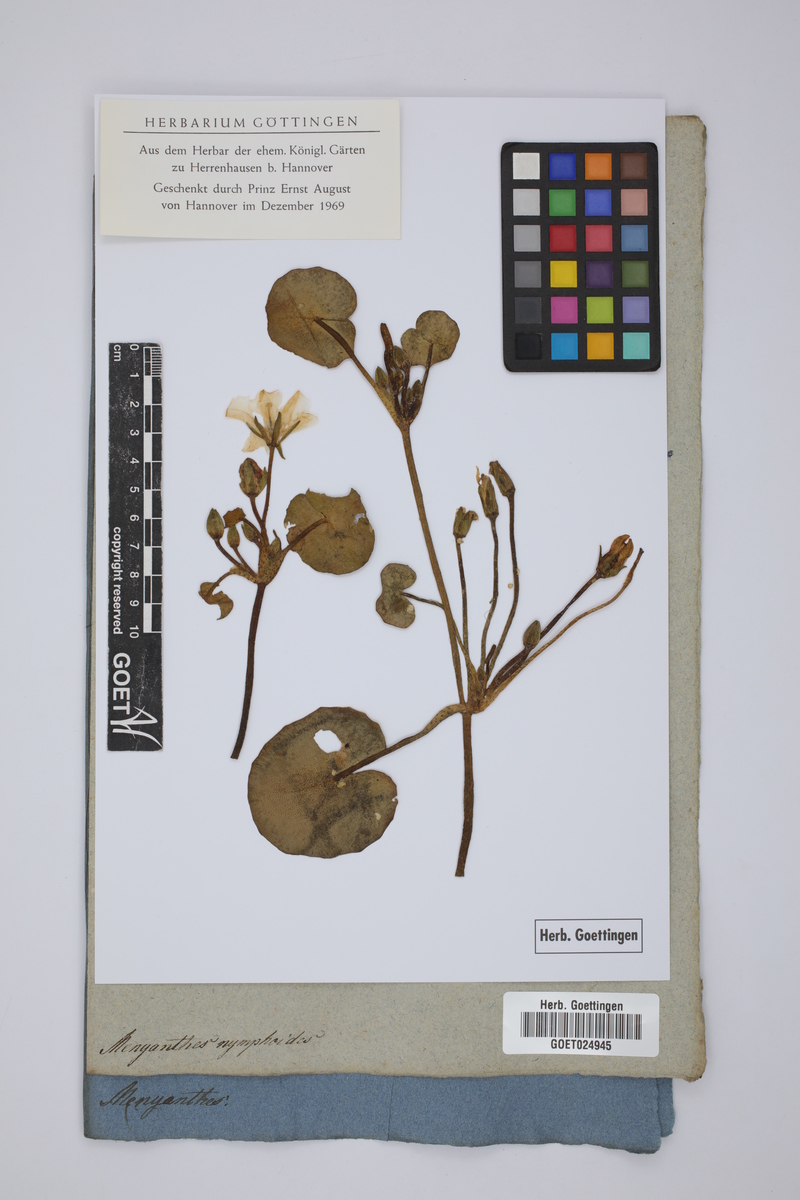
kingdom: Plantae
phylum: Tracheophyta
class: Magnoliopsida
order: Asterales
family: Menyanthaceae
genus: Nymphoides
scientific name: Nymphoides peltata
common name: Fringed water-lily
